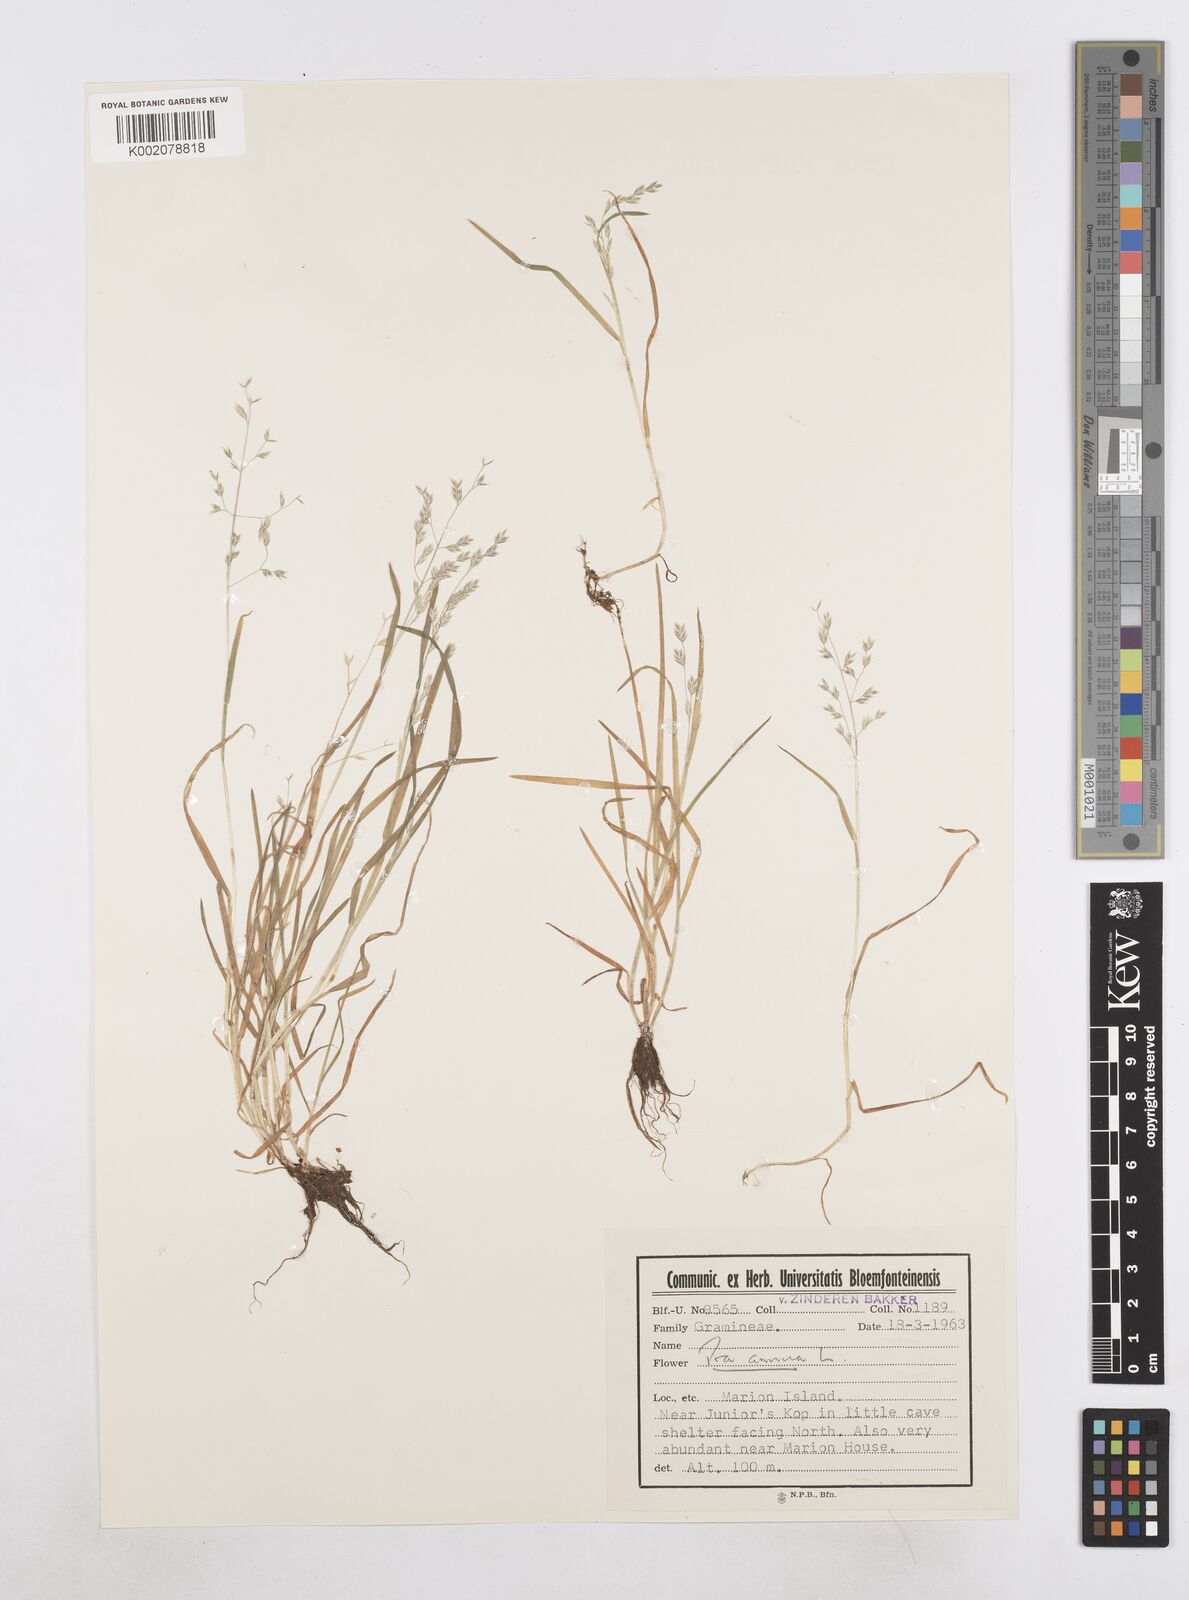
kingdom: Plantae
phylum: Tracheophyta
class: Liliopsida
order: Poales
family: Poaceae
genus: Poa
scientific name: Poa annua
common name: Annual bluegrass
